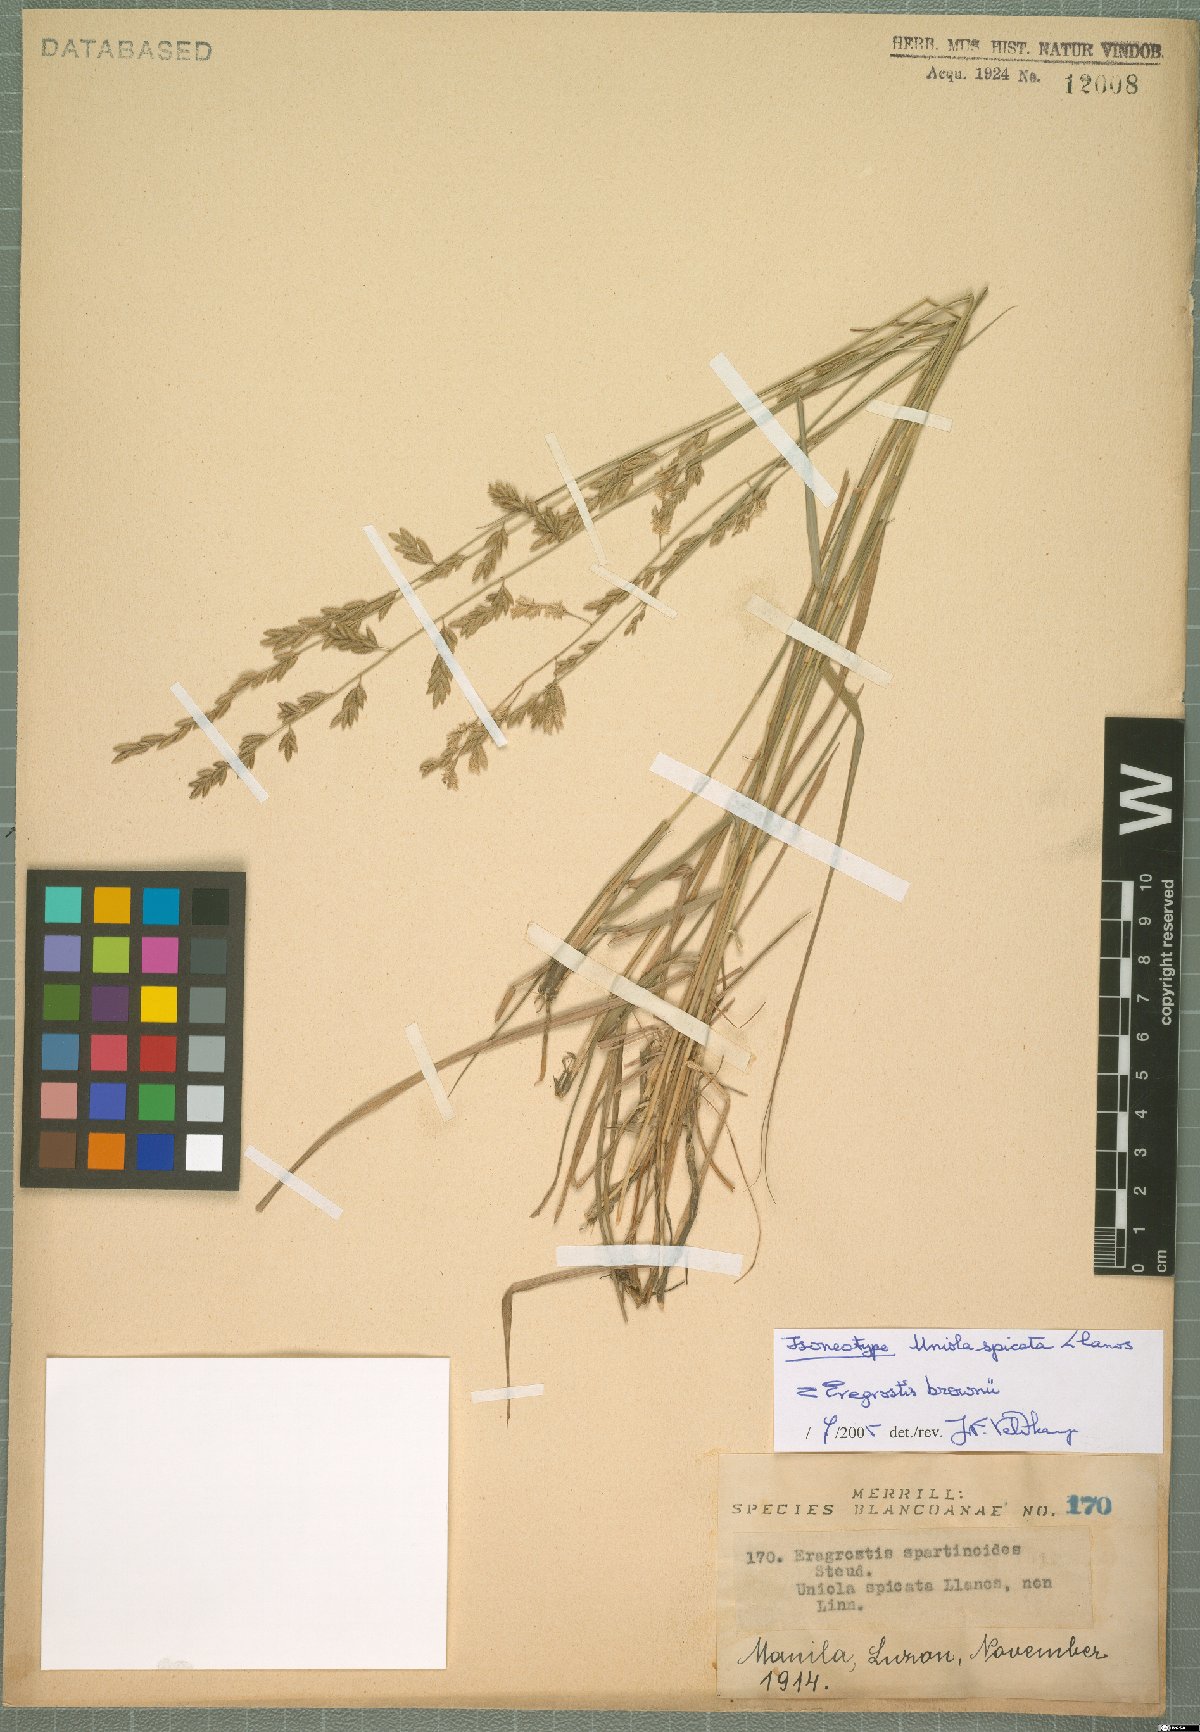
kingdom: Plantae
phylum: Tracheophyta
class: Liliopsida
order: Poales
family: Poaceae
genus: Eragrostis
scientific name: Eragrostis brownii
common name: Lovegrass
